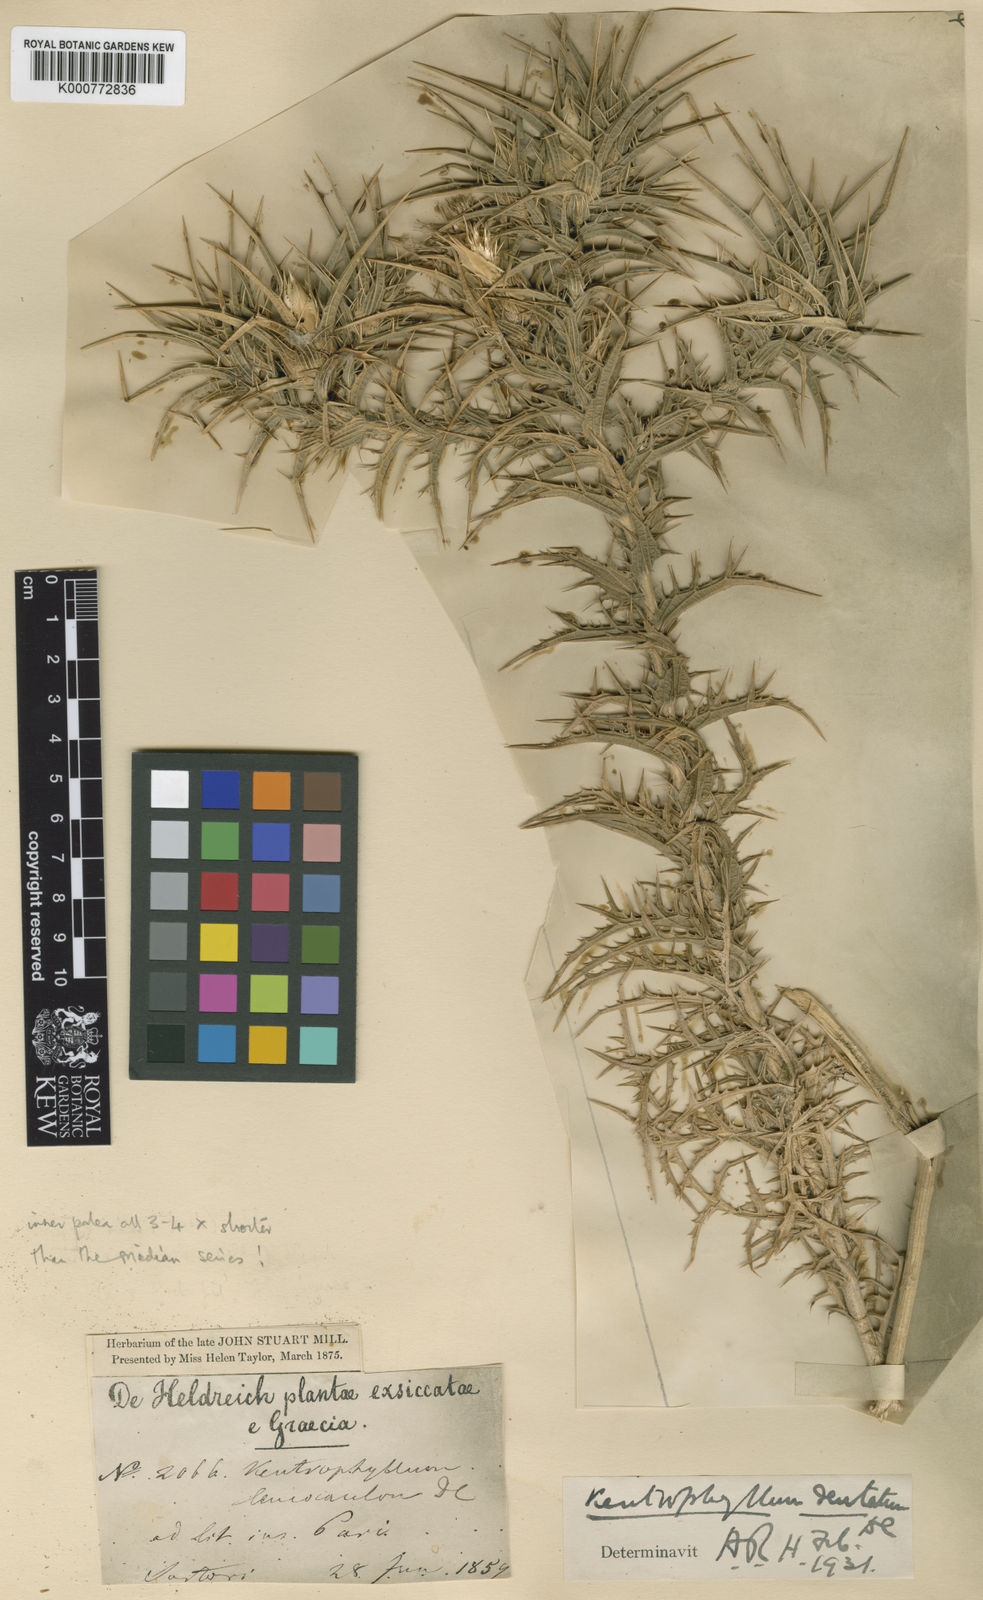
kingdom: Plantae
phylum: Tracheophyta
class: Magnoliopsida
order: Asterales
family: Asteraceae
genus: Carthamus
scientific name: Carthamus dentatus
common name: Toothed thistle
